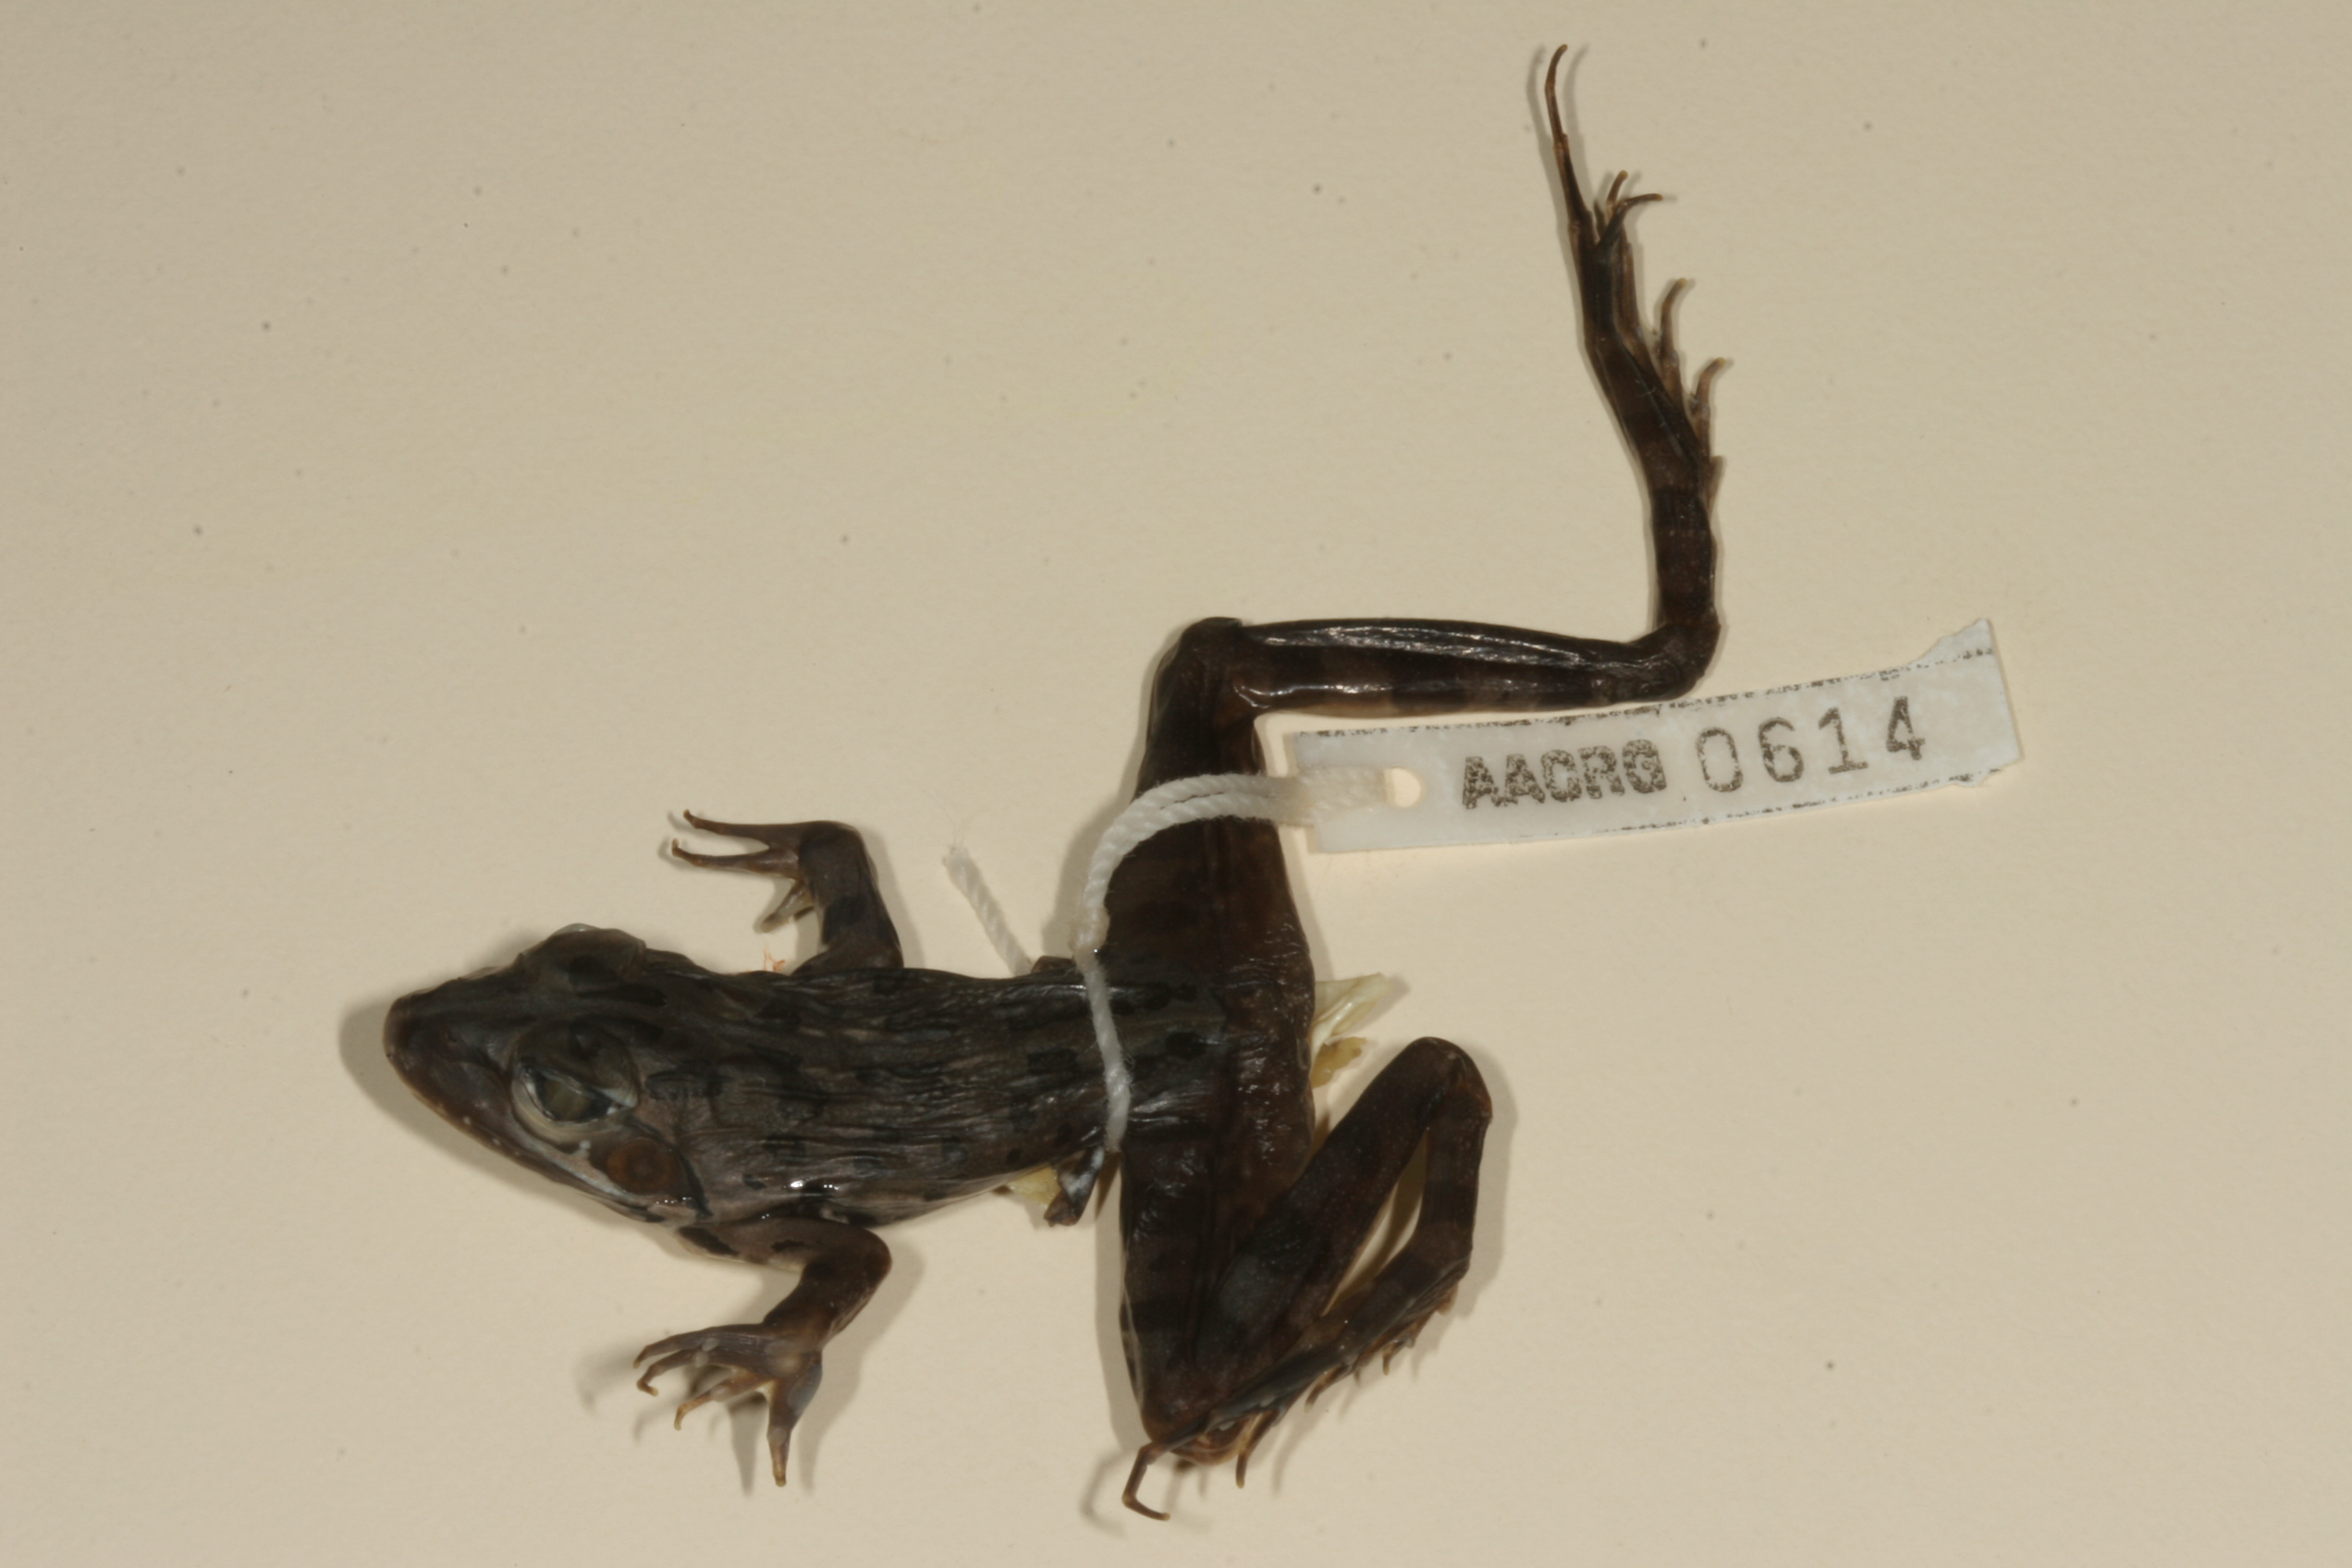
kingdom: Animalia
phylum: Chordata
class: Amphibia
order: Anura
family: Pyxicephalidae
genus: Amietia
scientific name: Amietia angolensis
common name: Dusky-throated frog
